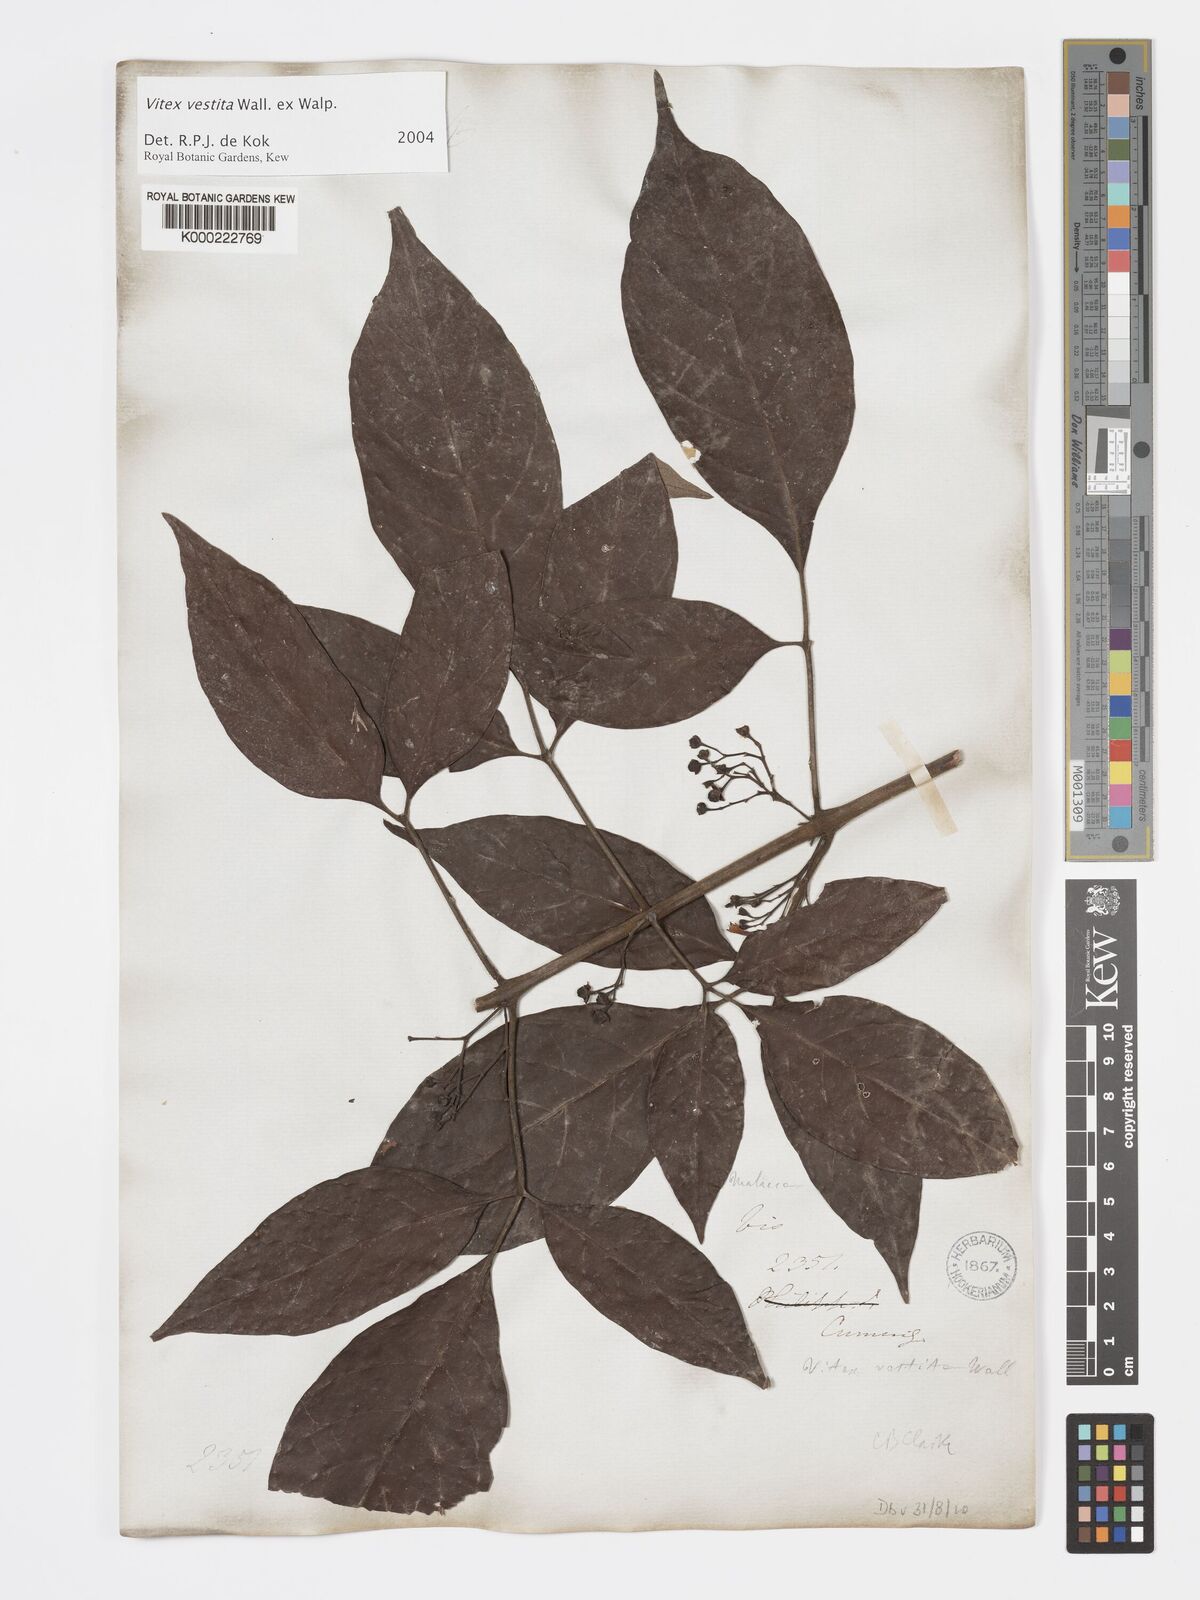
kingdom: Plantae
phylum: Tracheophyta
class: Magnoliopsida
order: Lamiales
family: Lamiaceae
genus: Vitex
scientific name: Vitex vestita
